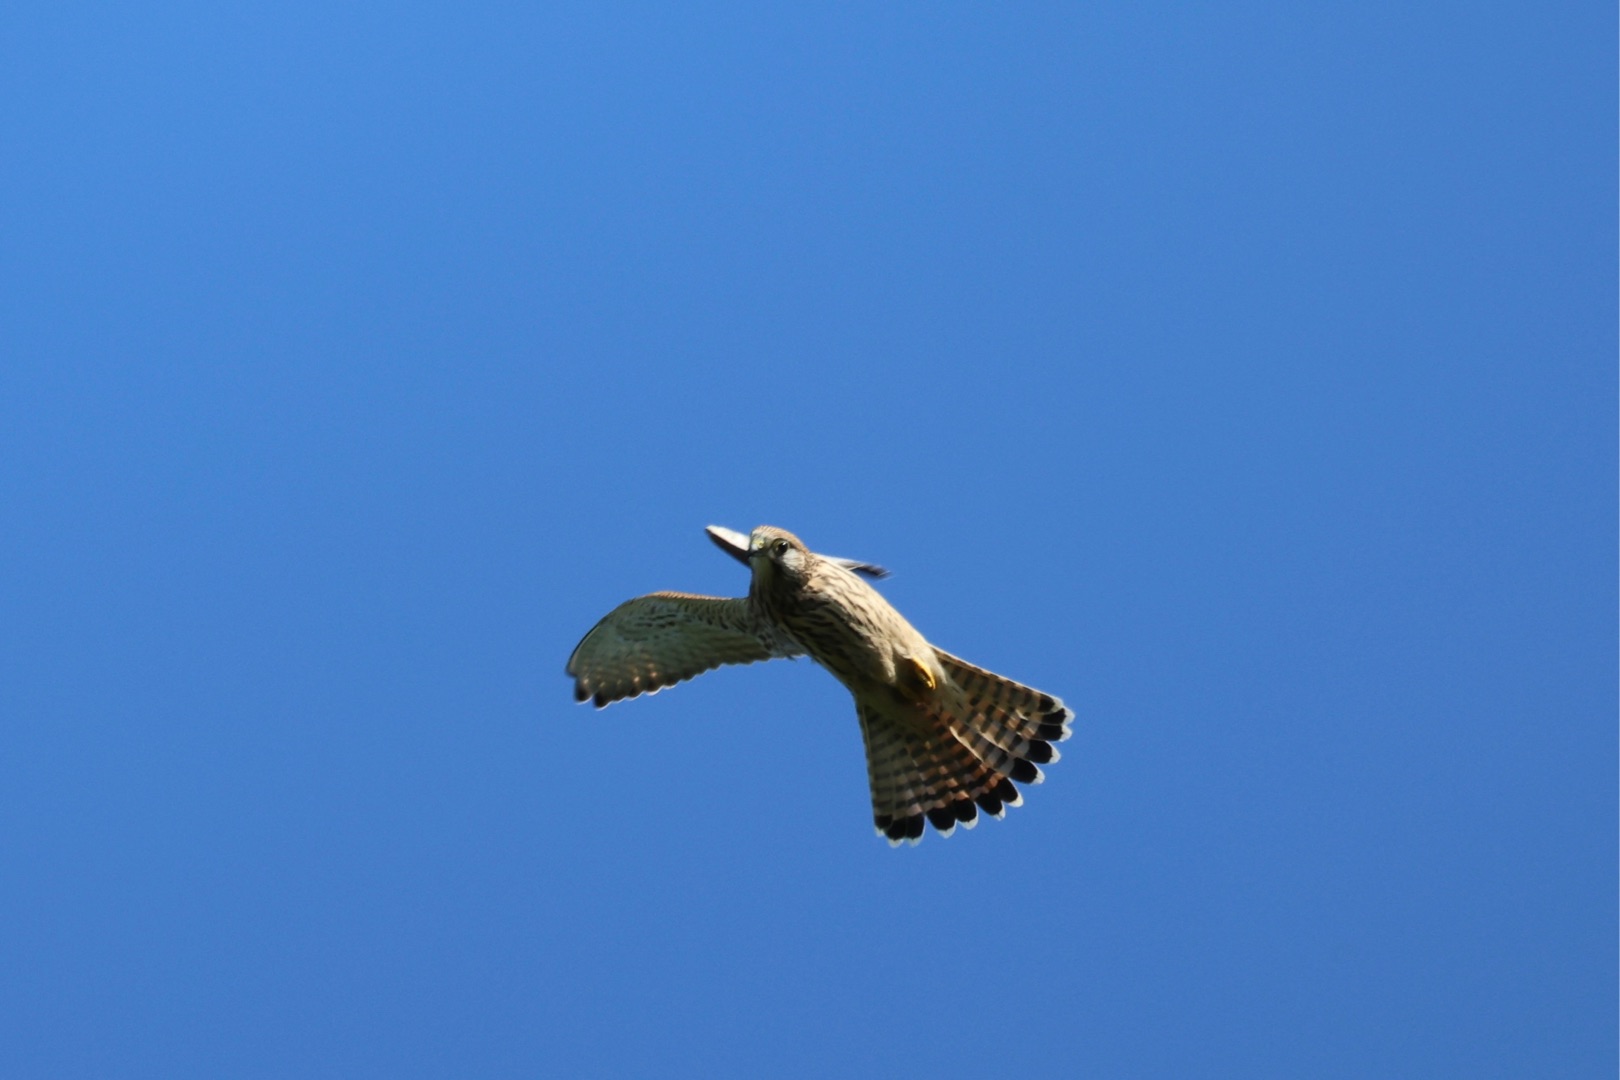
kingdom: Animalia
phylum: Chordata
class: Aves
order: Falconiformes
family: Falconidae
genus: Falco
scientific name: Falco tinnunculus
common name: Tårnfalk
